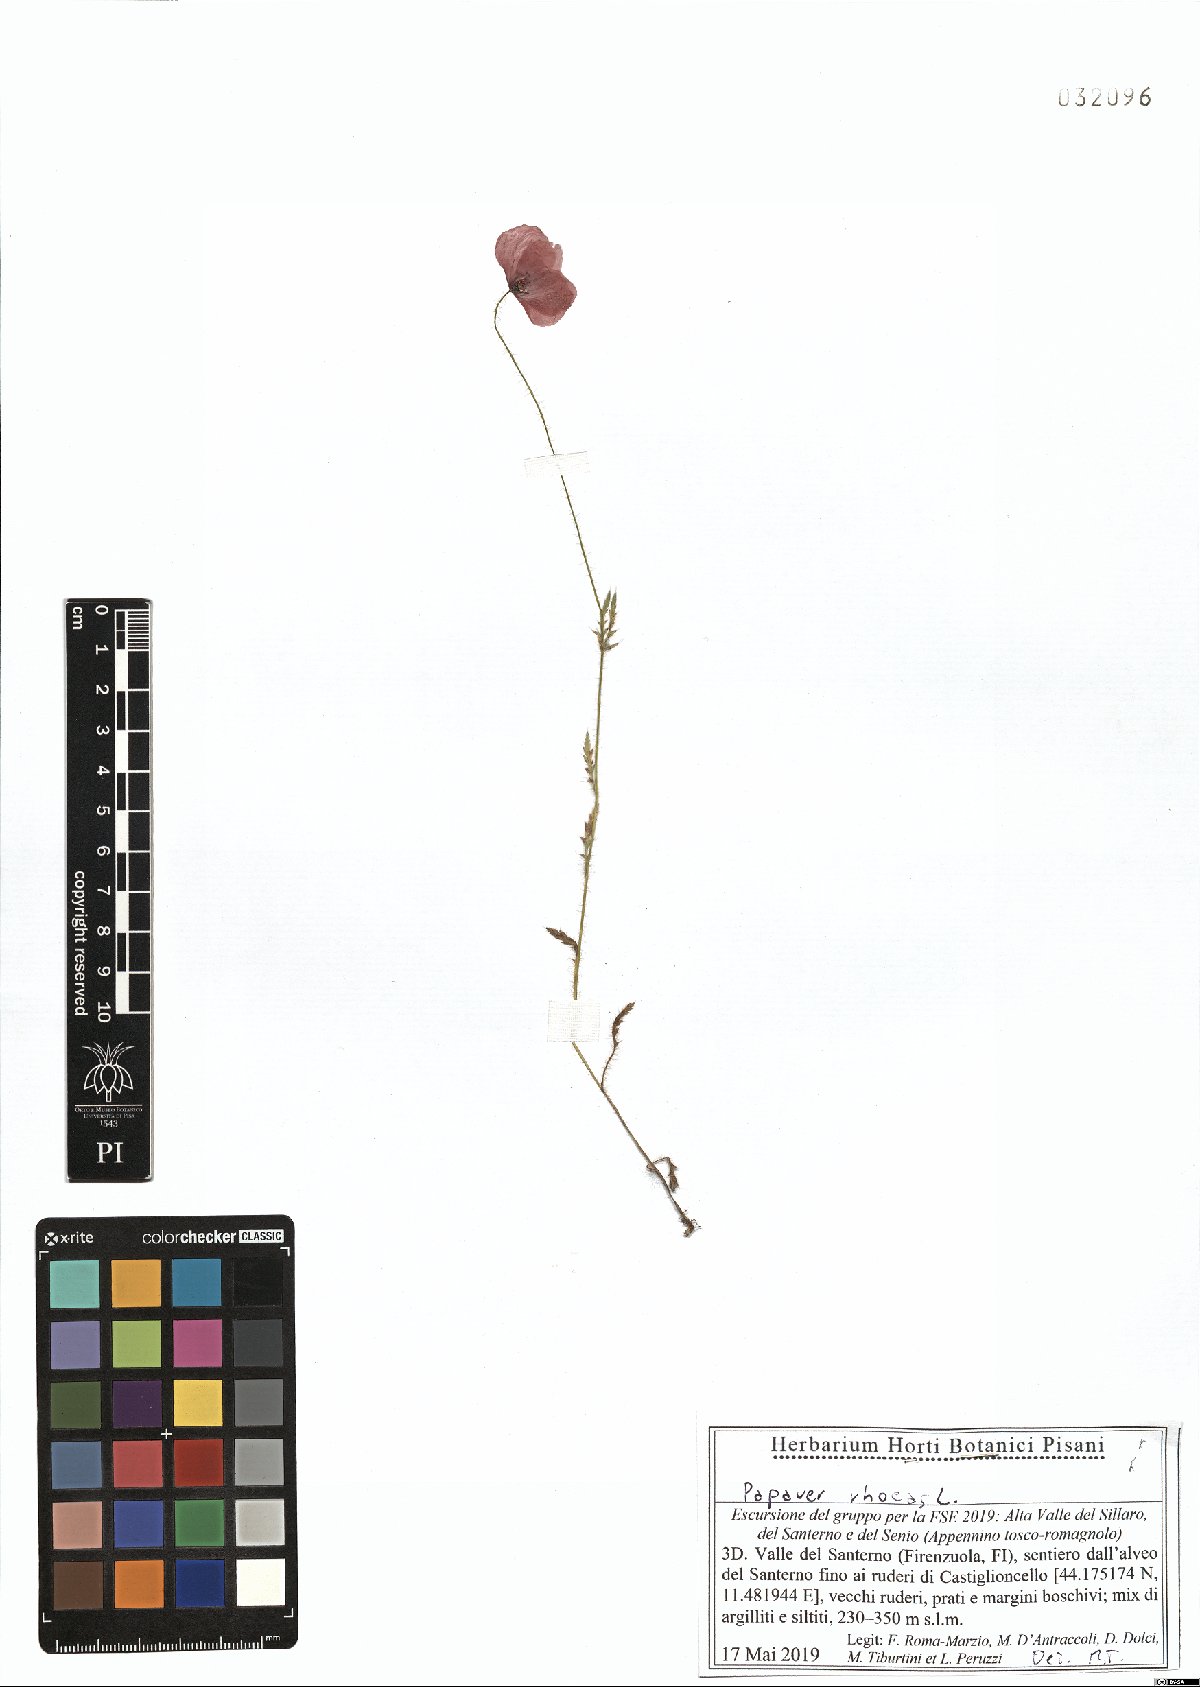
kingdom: Plantae
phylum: Tracheophyta
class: Magnoliopsida
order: Ranunculales
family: Papaveraceae
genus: Papaver
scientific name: Papaver rhoeas
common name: Corn poppy
